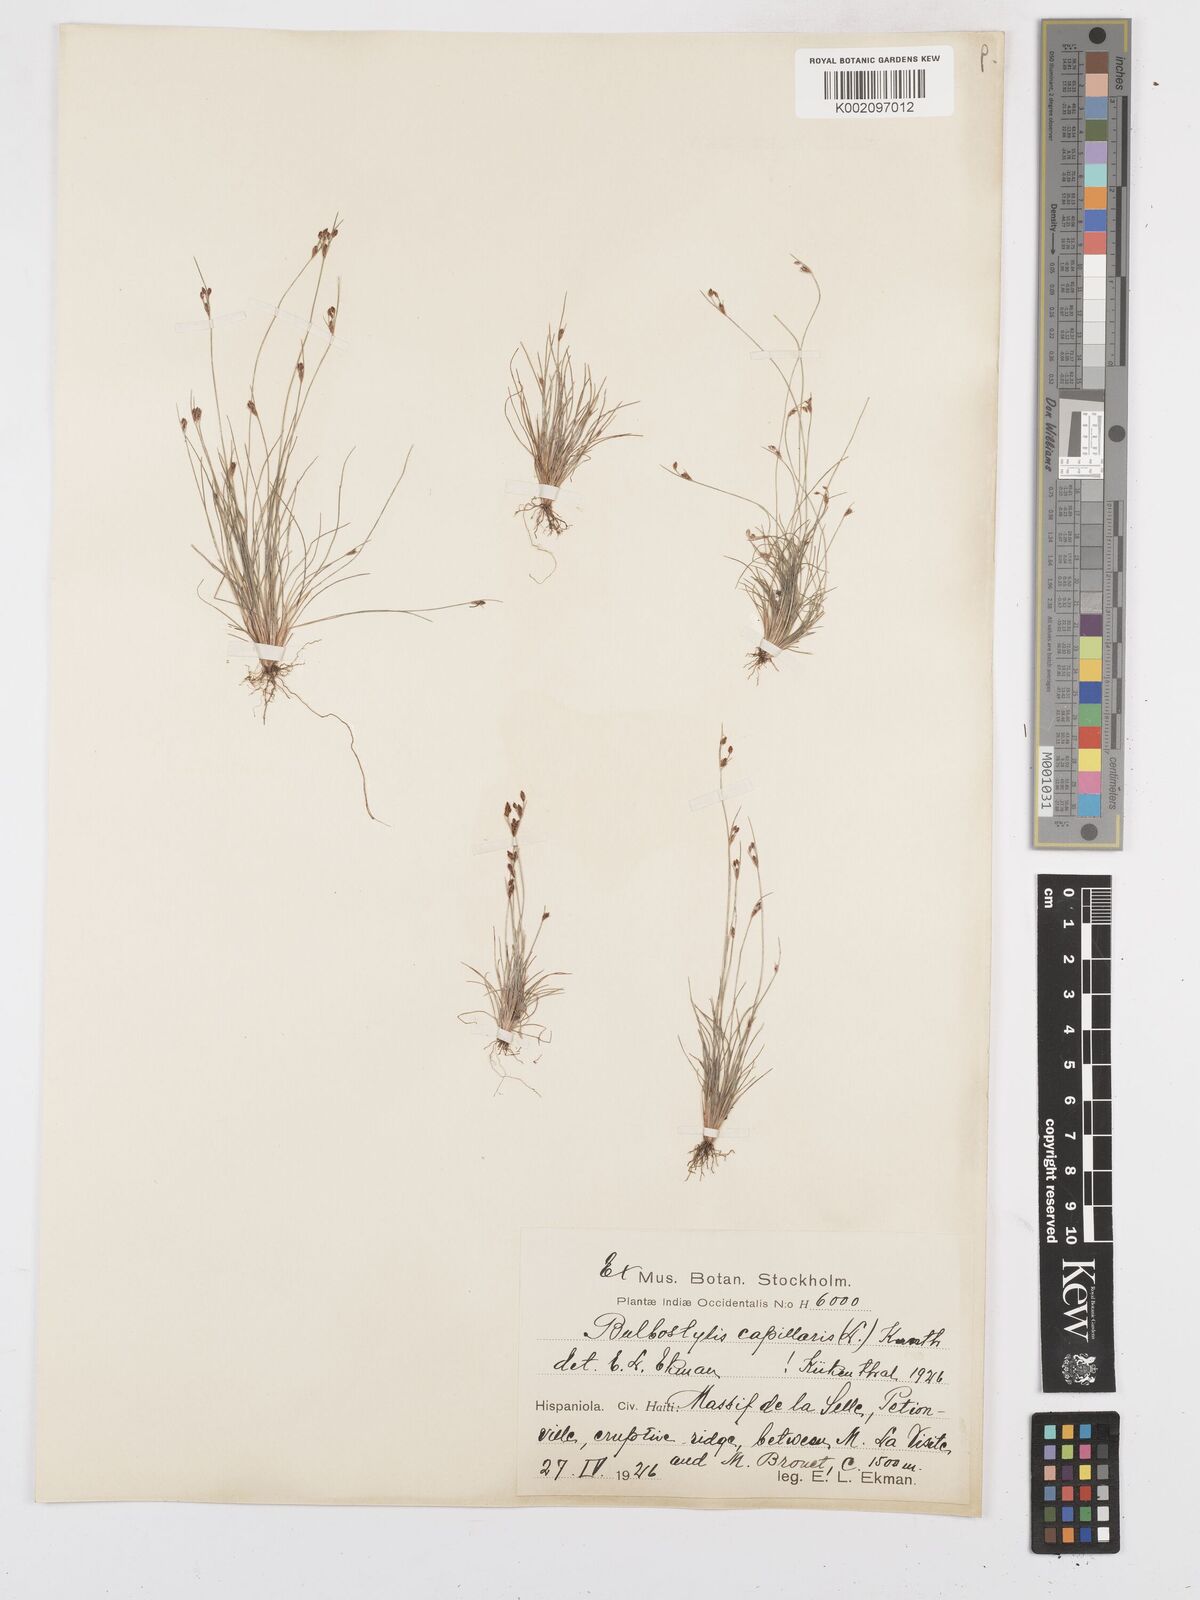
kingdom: Plantae
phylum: Tracheophyta
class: Liliopsida
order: Poales
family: Cyperaceae
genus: Bulbostylis
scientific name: Bulbostylis capillaris
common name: Densetuft hairsedge
